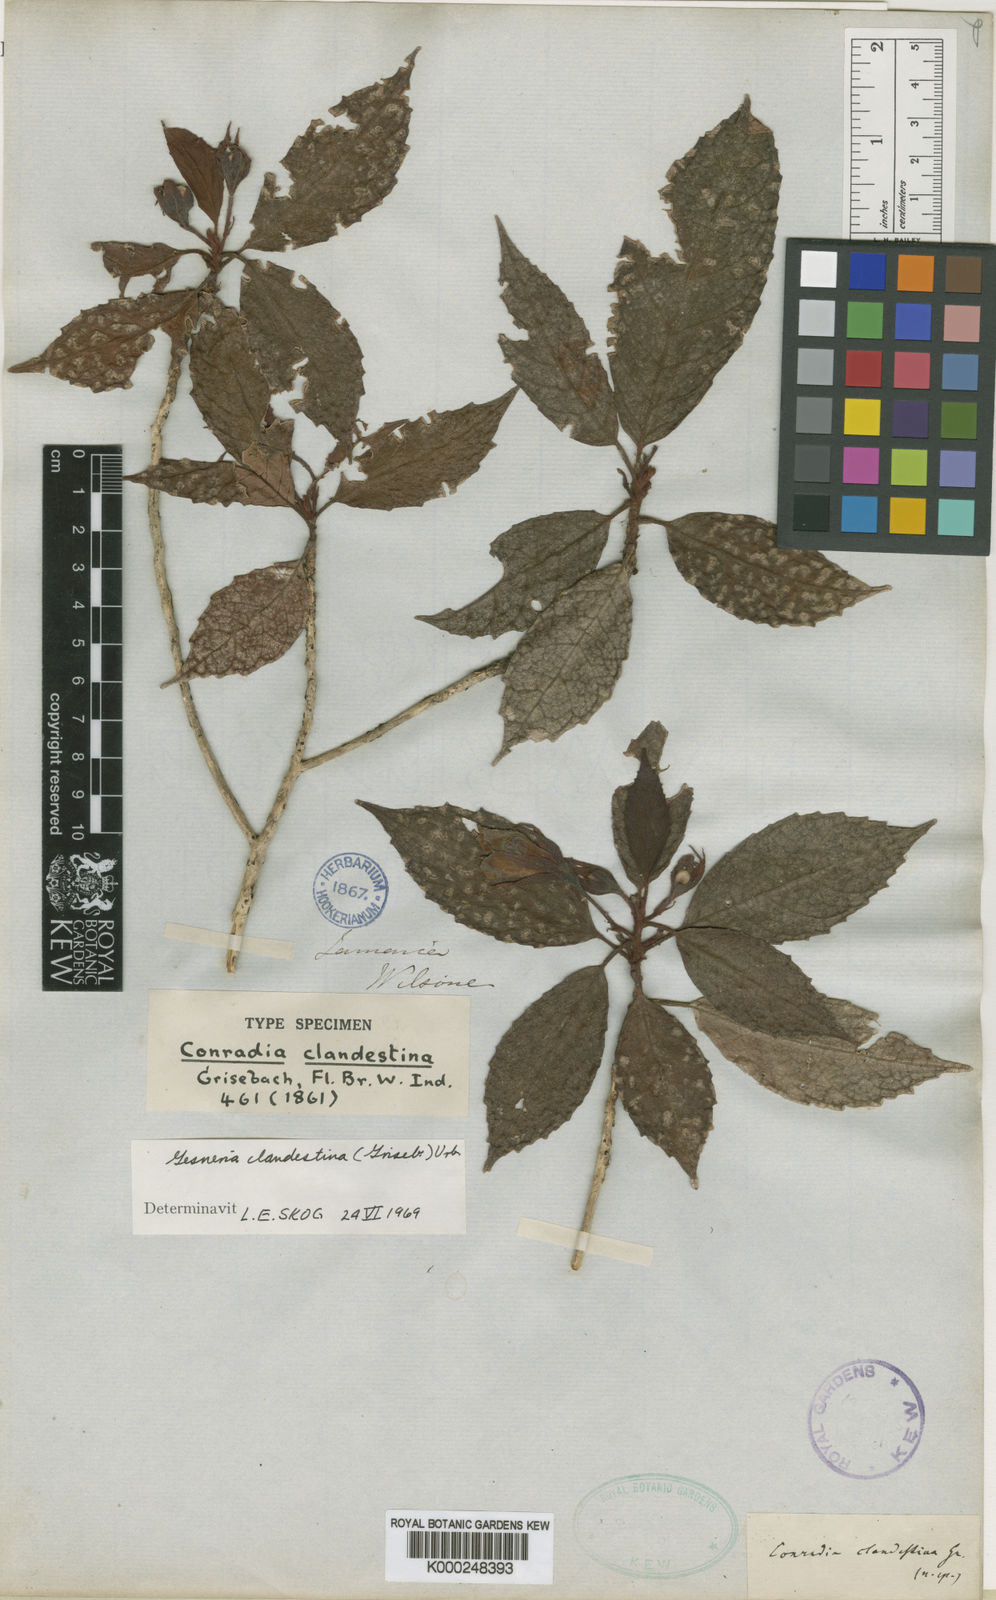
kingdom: Plantae
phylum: Tracheophyta
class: Magnoliopsida
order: Lamiales
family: Gesneriaceae
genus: Gesneria
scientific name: Gesneria clandestina
